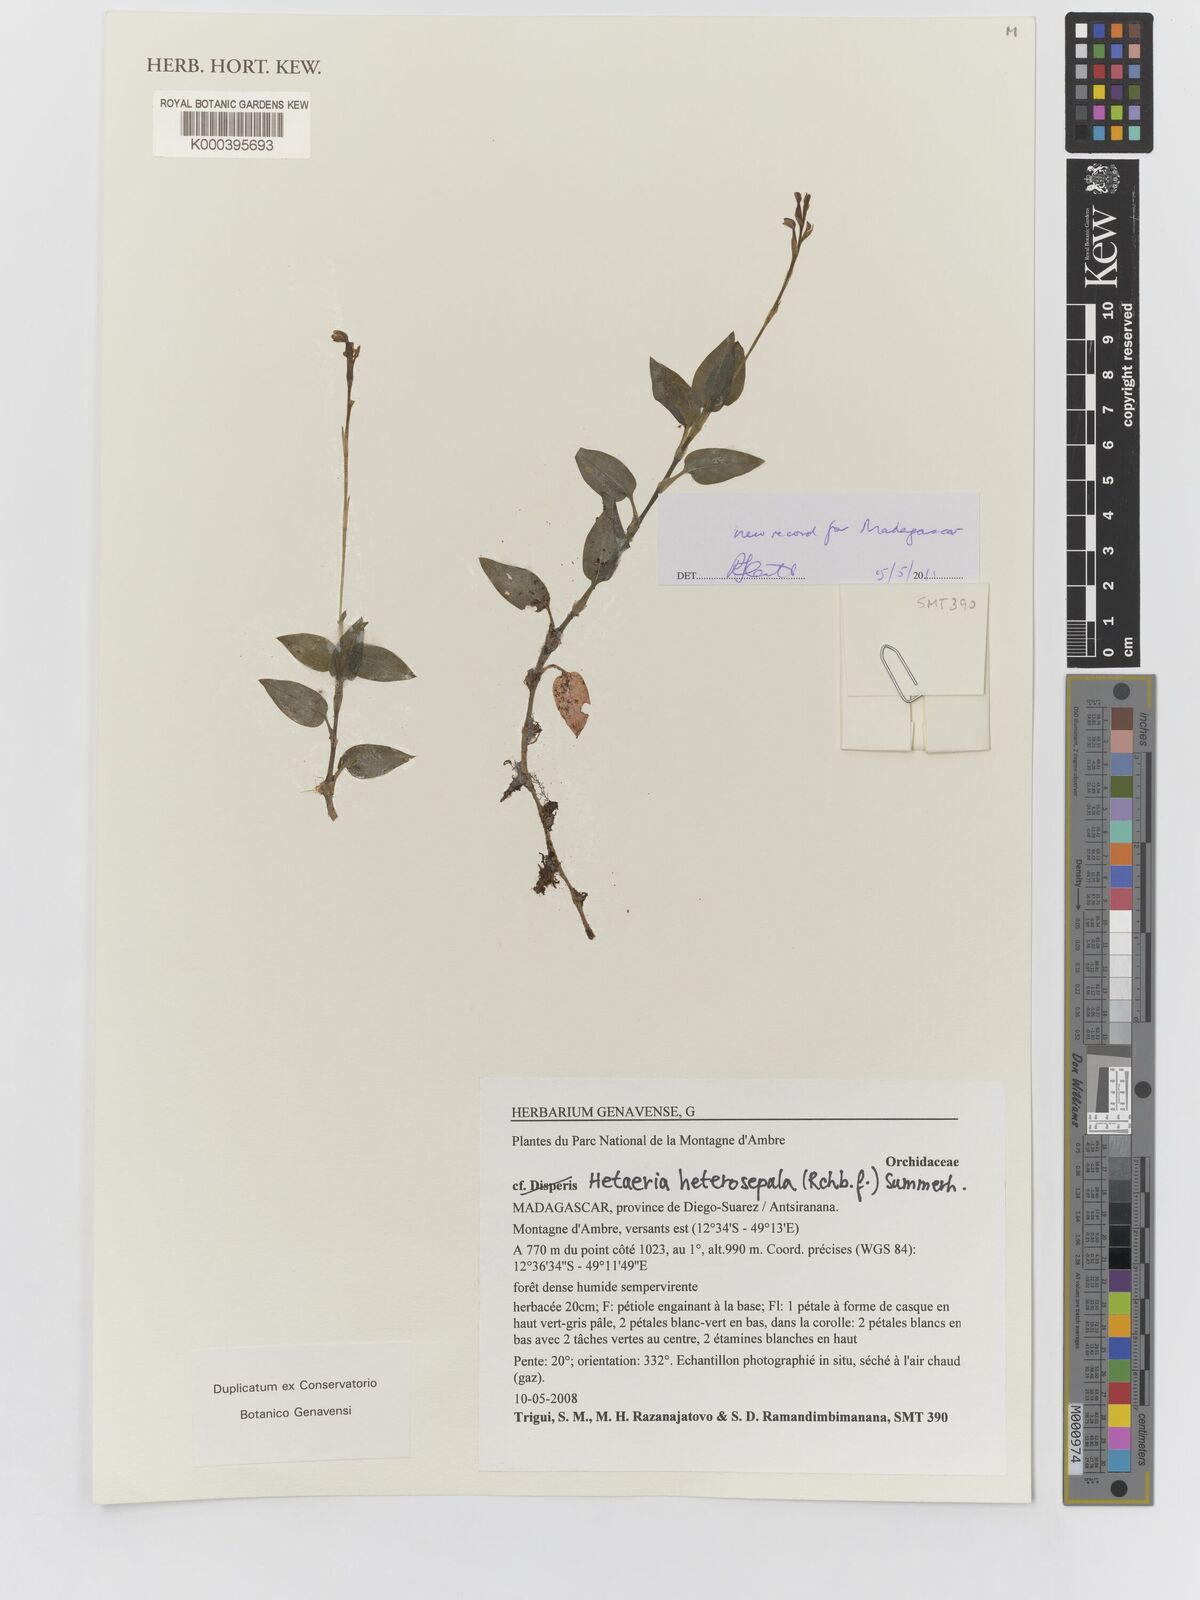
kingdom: Plantae
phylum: Tracheophyta
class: Liliopsida
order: Asparagales
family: Orchidaceae
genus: Hetaeria
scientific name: Hetaeria heterosepala
